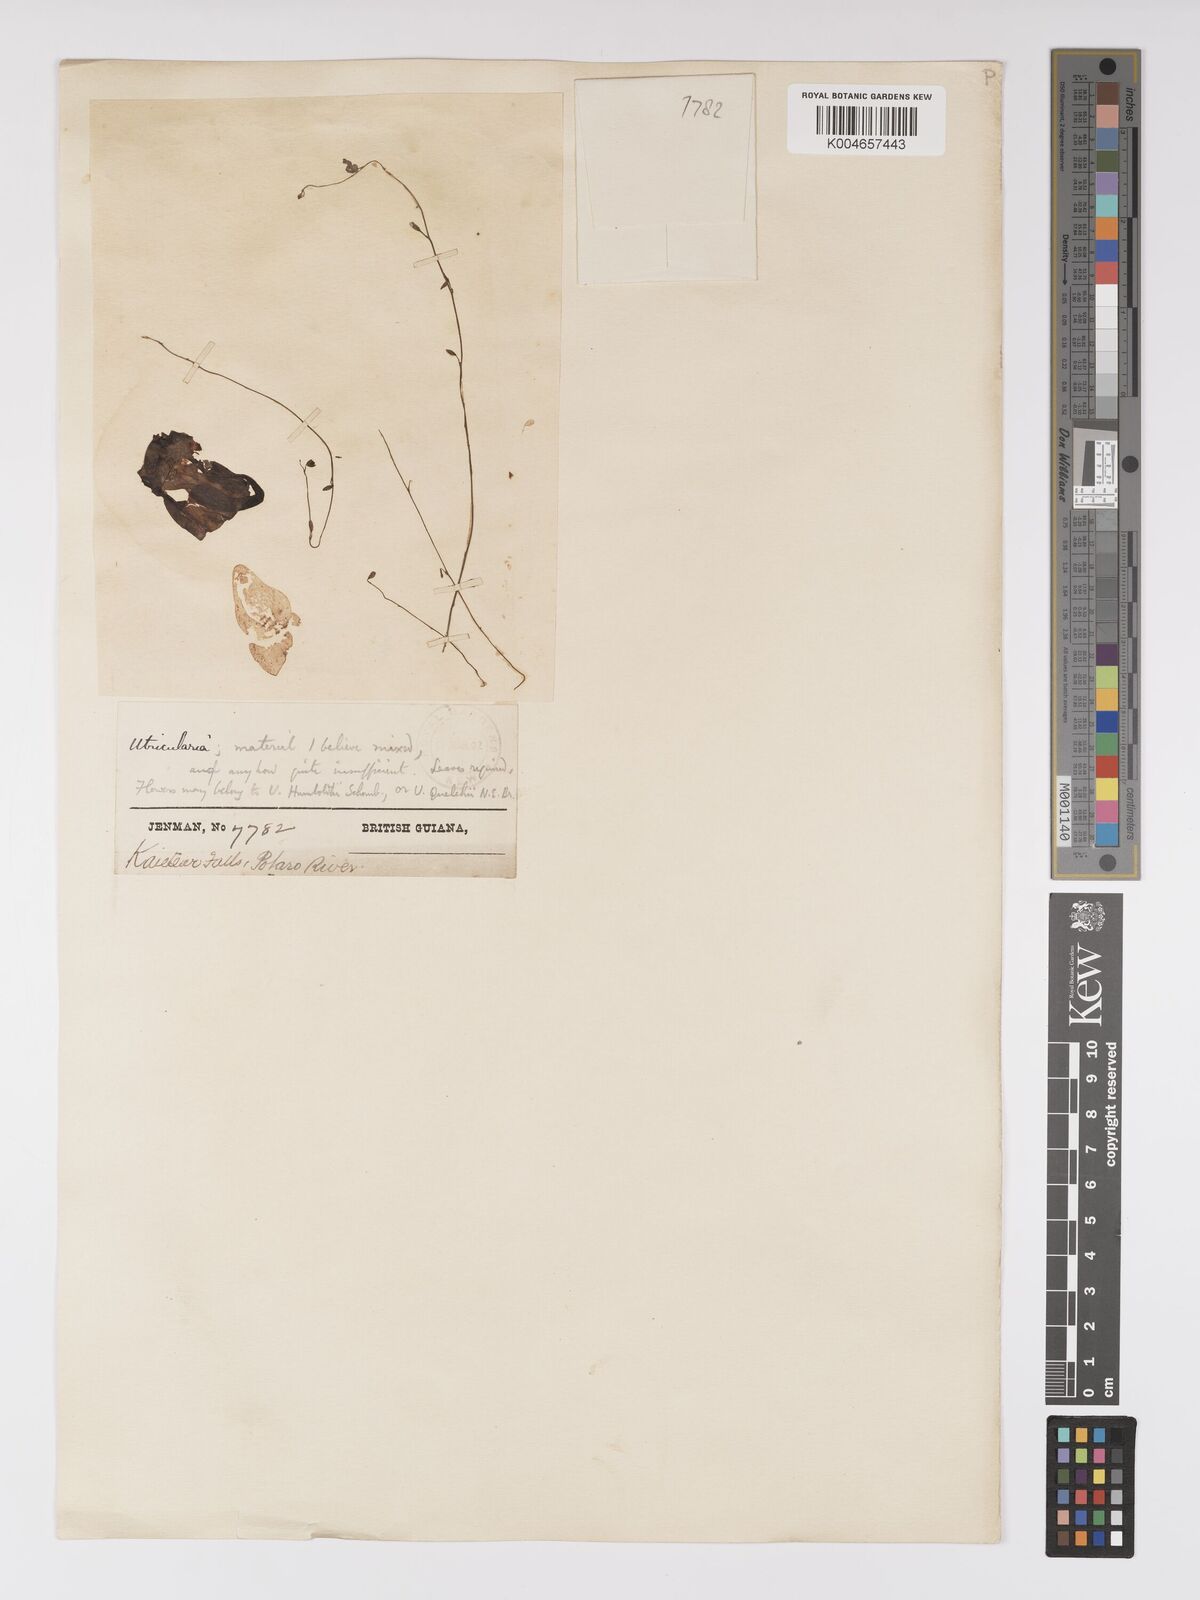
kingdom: Plantae
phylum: Tracheophyta
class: Magnoliopsida
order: Lamiales
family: Lentibulariaceae
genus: Utricularia
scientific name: Utricularia humboldtii
